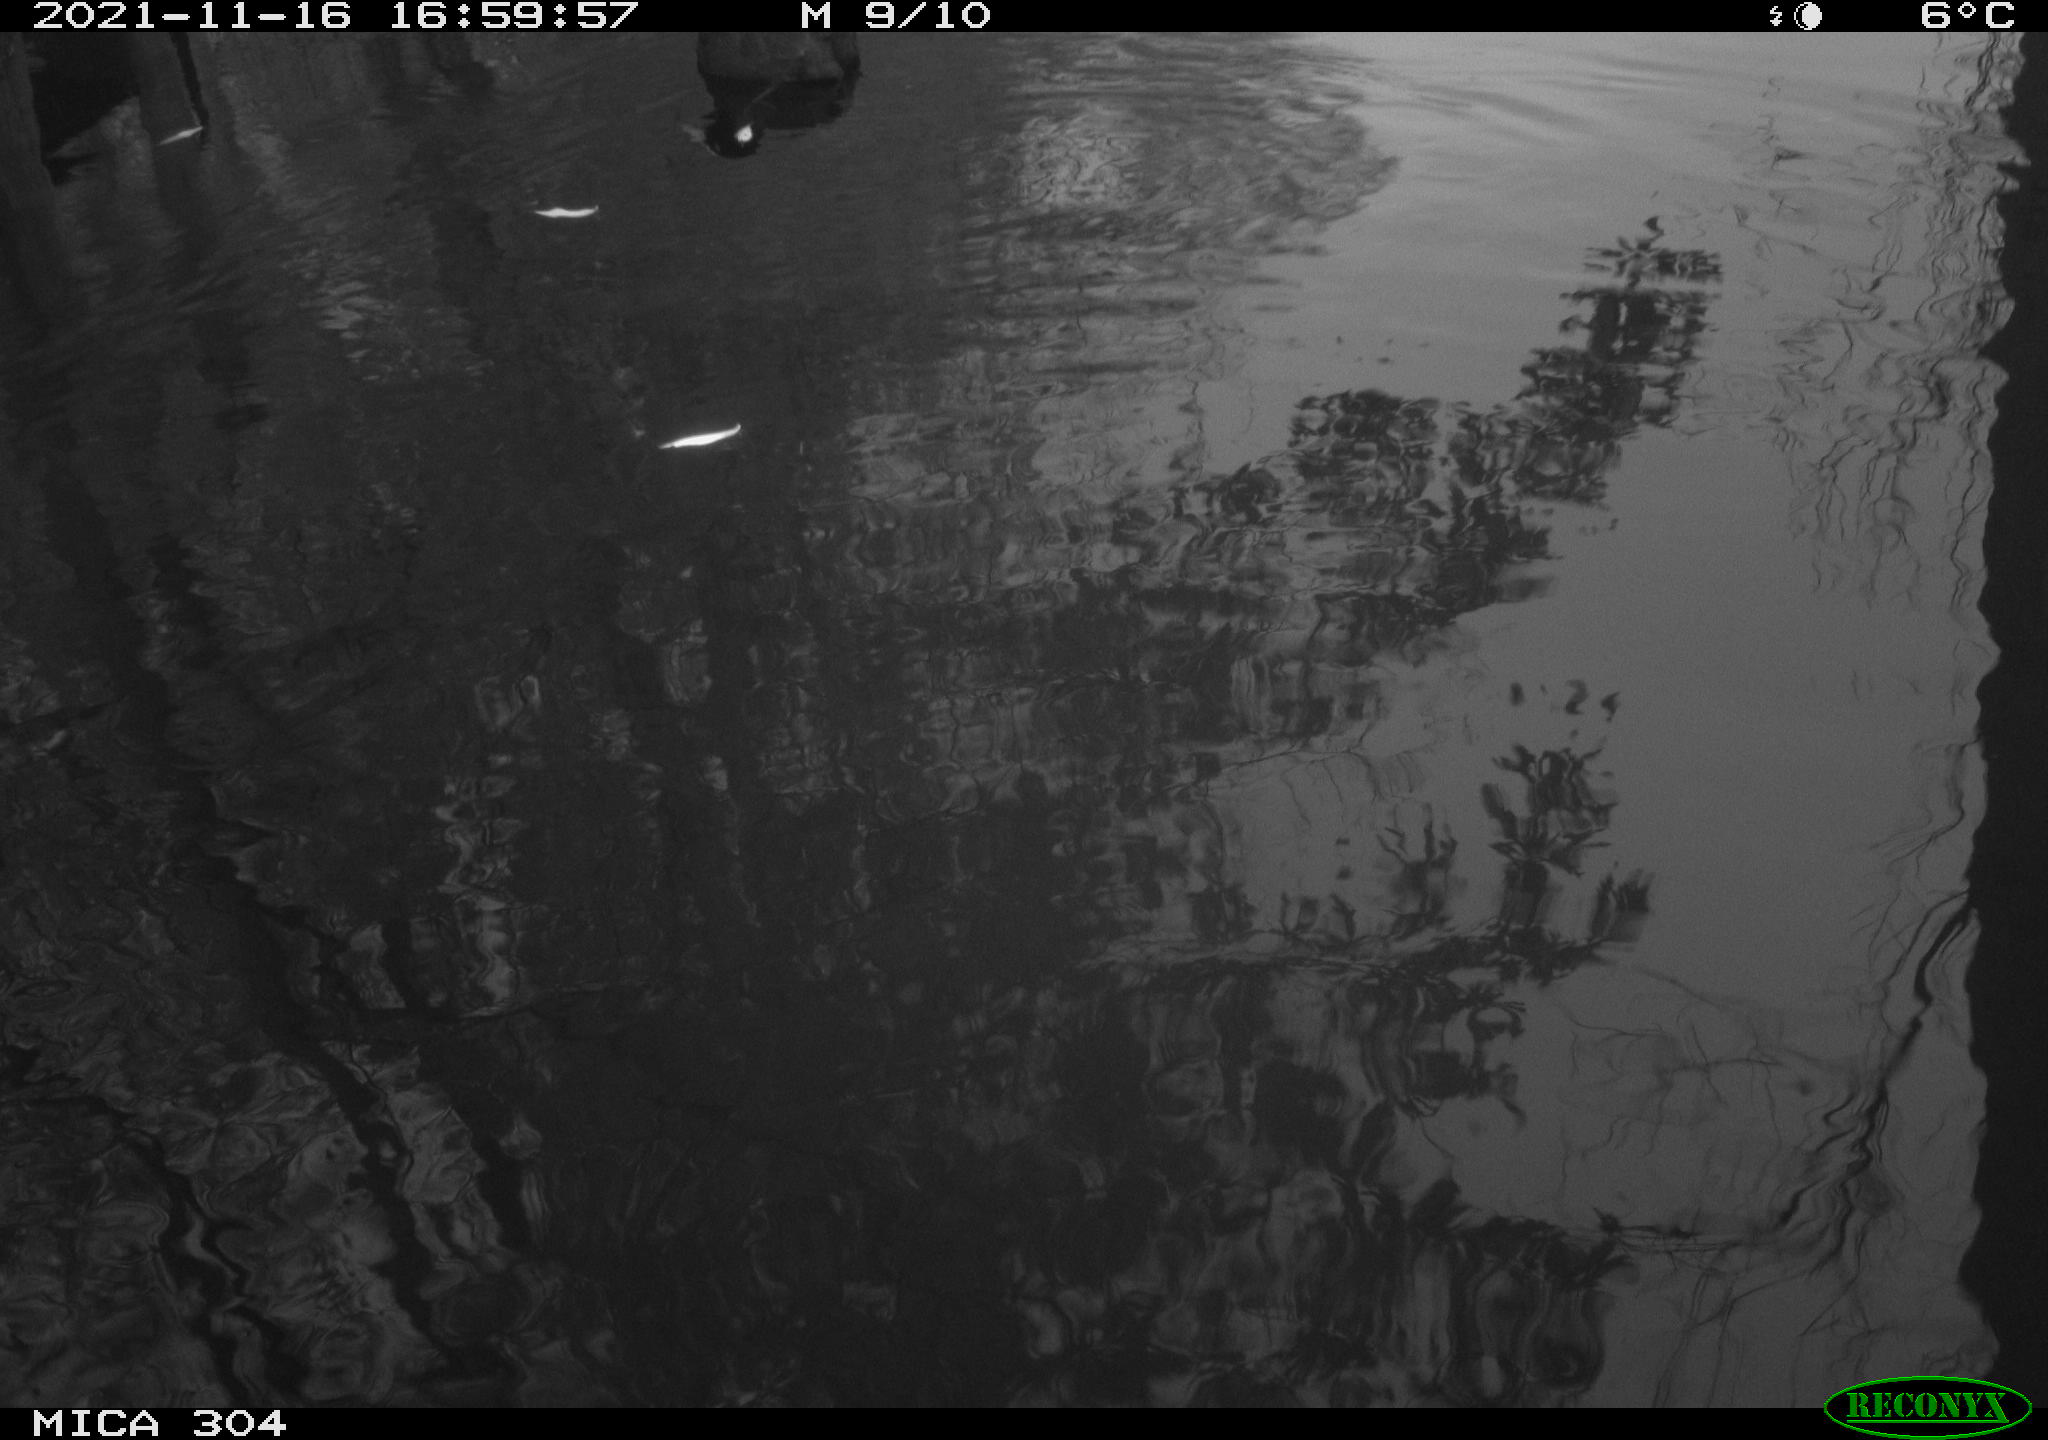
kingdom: Animalia
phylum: Chordata
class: Aves
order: Gruiformes
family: Rallidae
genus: Fulica
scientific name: Fulica atra
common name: Eurasian coot
